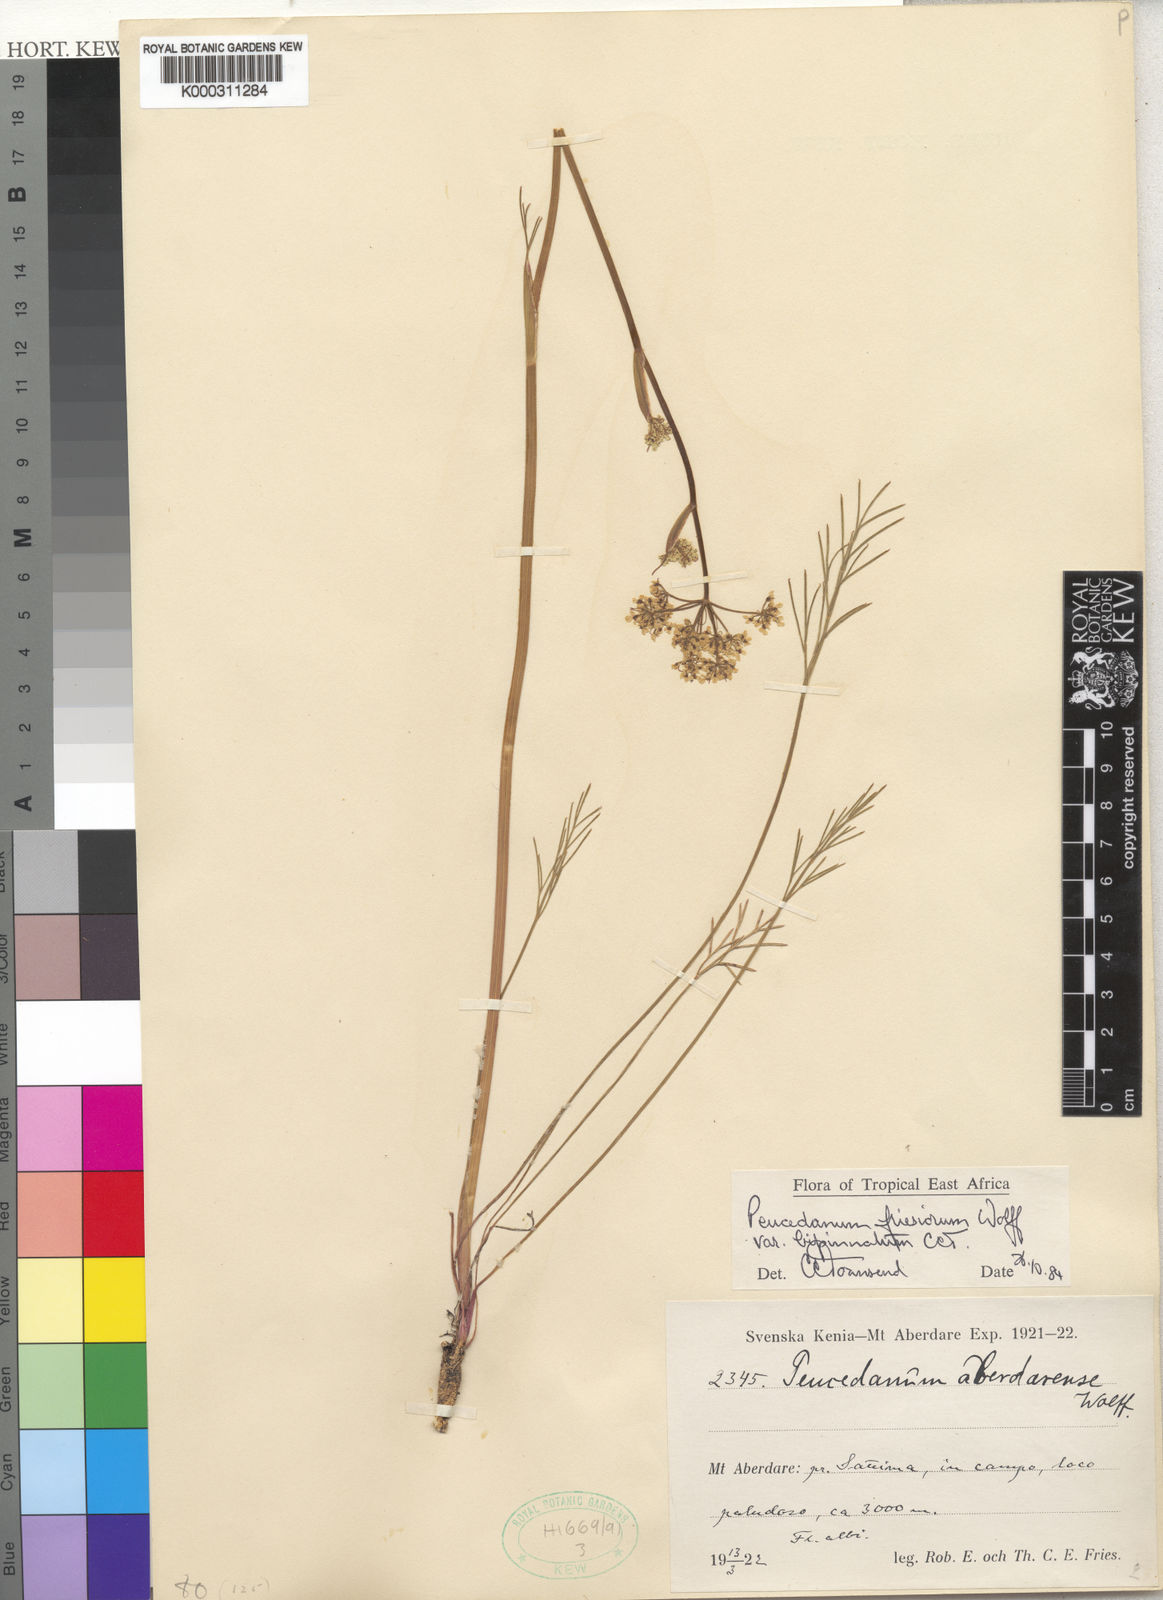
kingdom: Plantae
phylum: Tracheophyta
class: Magnoliopsida
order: Apiales
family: Apiaceae
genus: Afrosciadium
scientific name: Afrosciadium friesiorum
